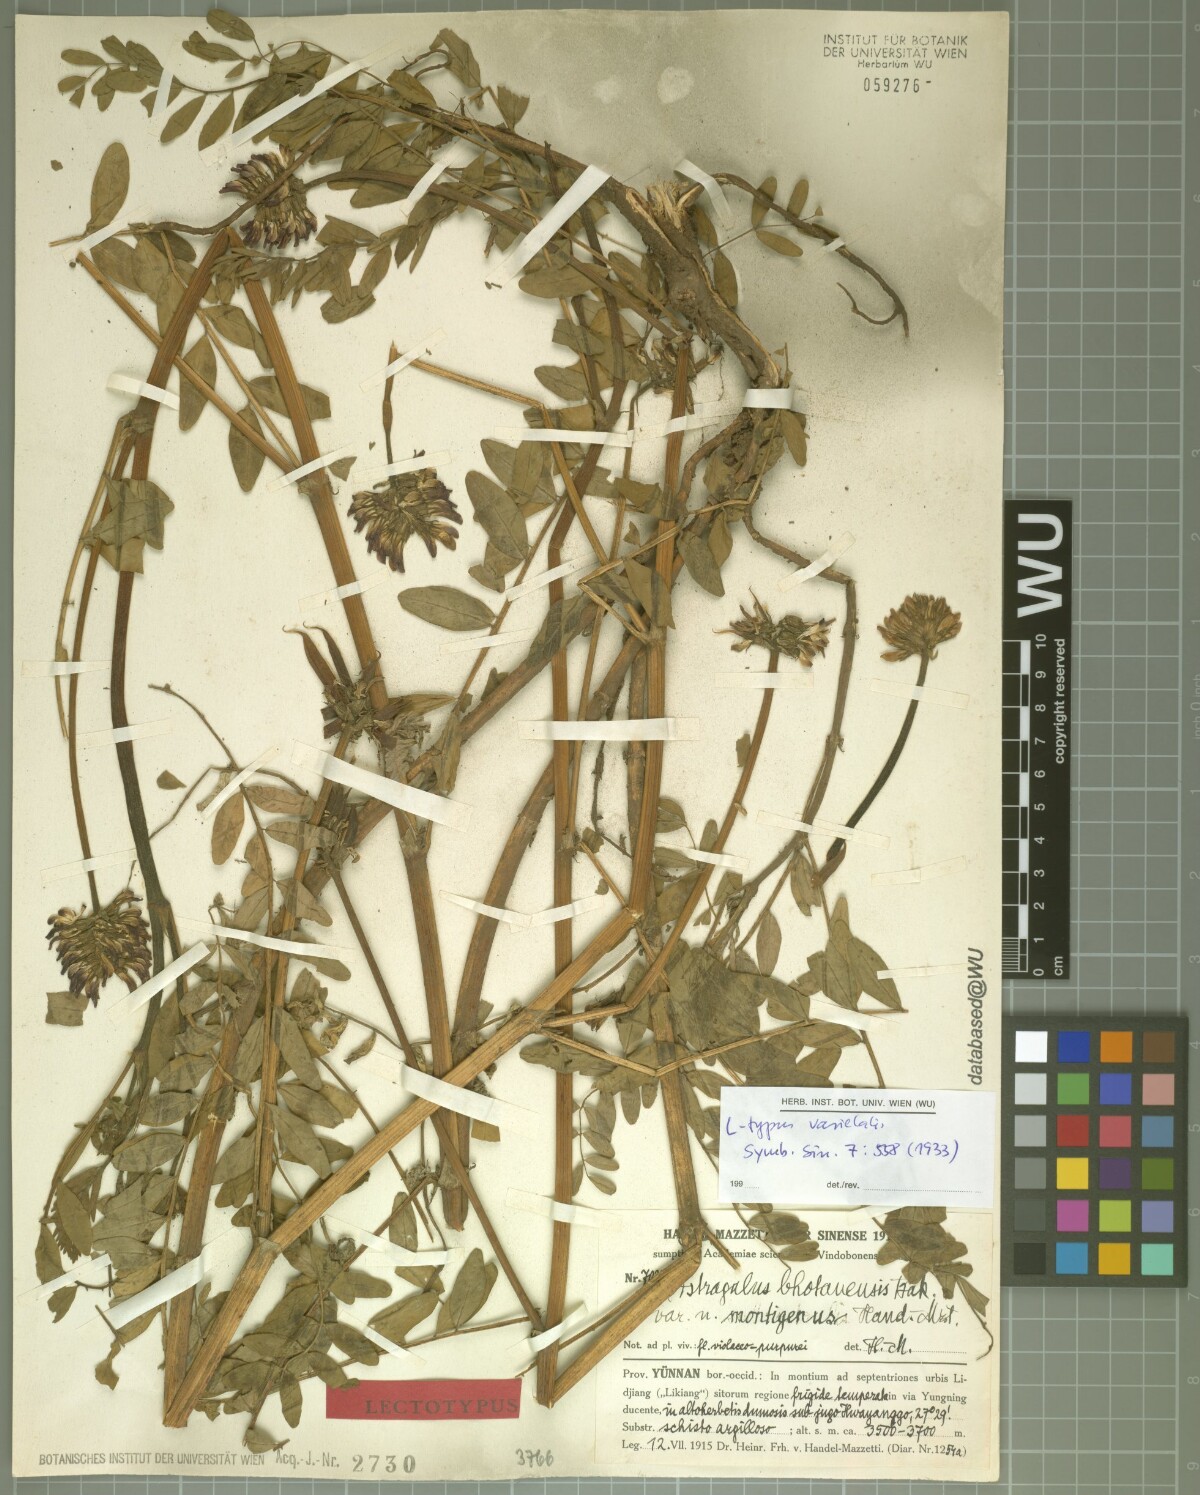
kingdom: Plantae
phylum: Tracheophyta
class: Magnoliopsida
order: Fabales
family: Fabaceae
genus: Astragalus
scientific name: Astragalus bhotanensis
